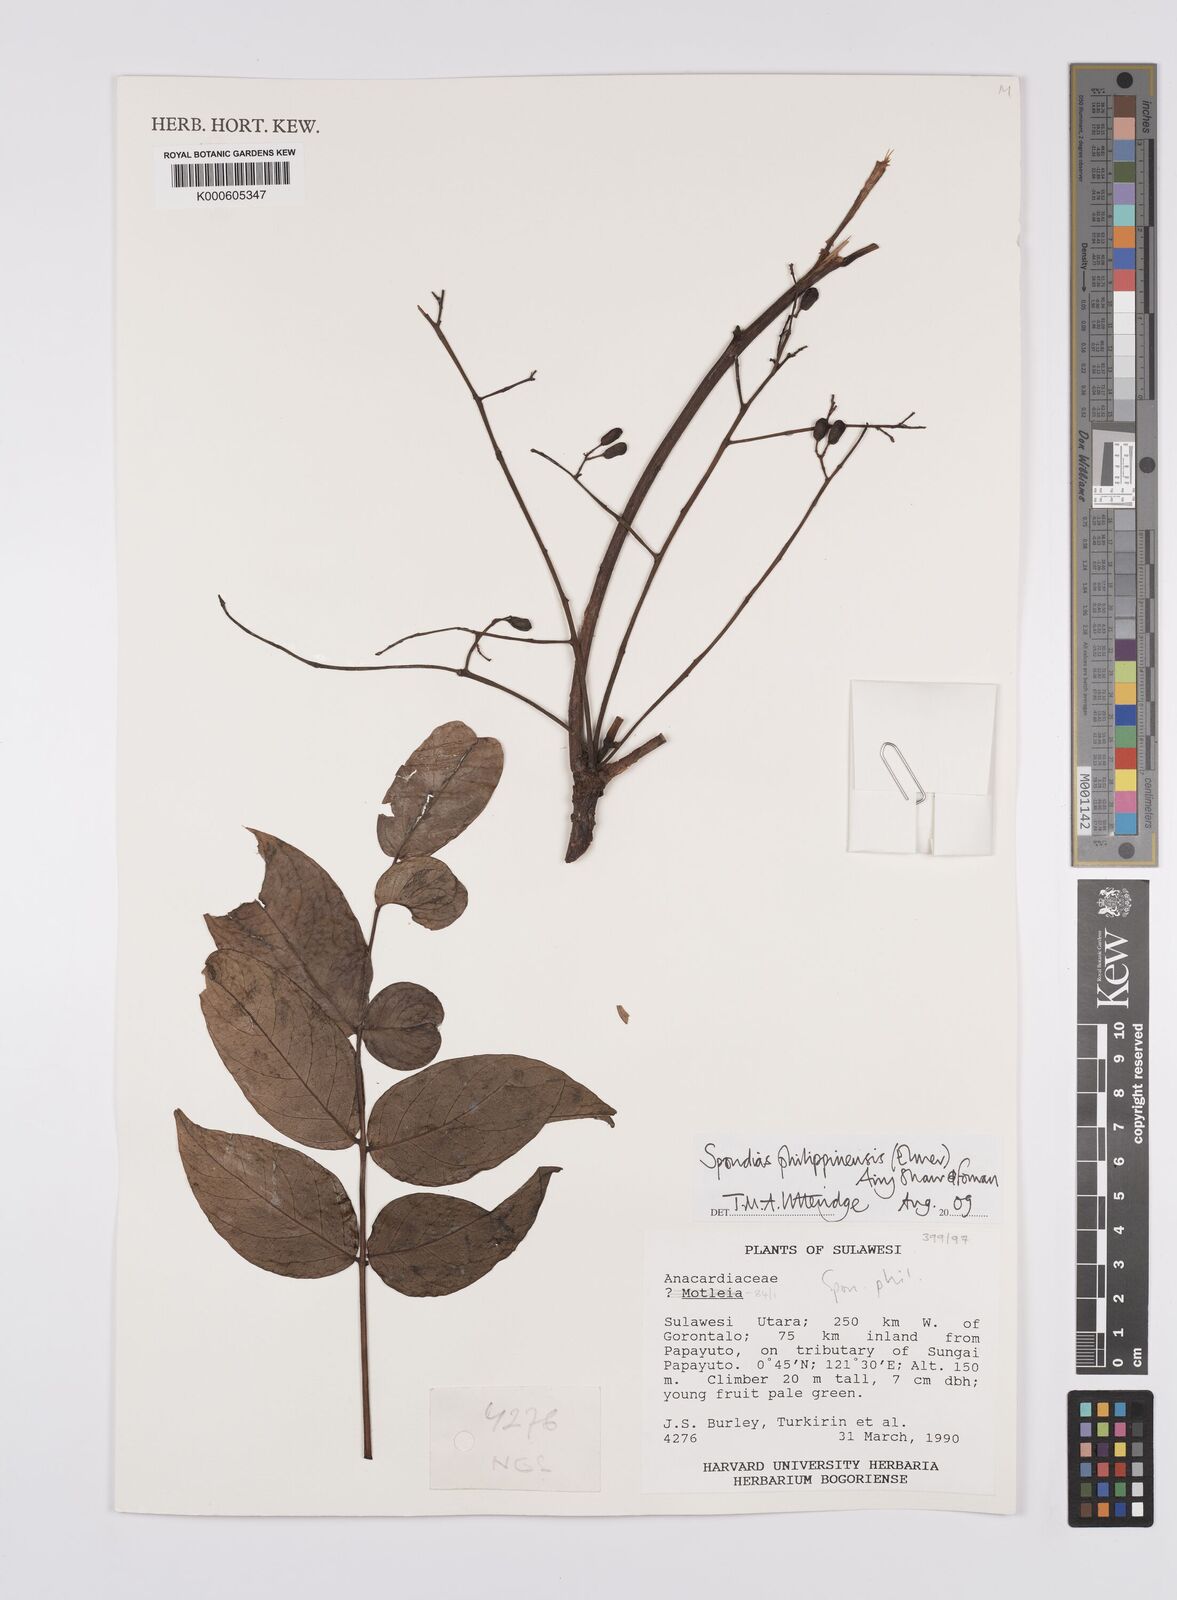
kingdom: Plantae
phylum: Tracheophyta
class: Magnoliopsida
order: Sapindales
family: Anacardiaceae
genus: Spondias
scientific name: Spondias philippinensis
